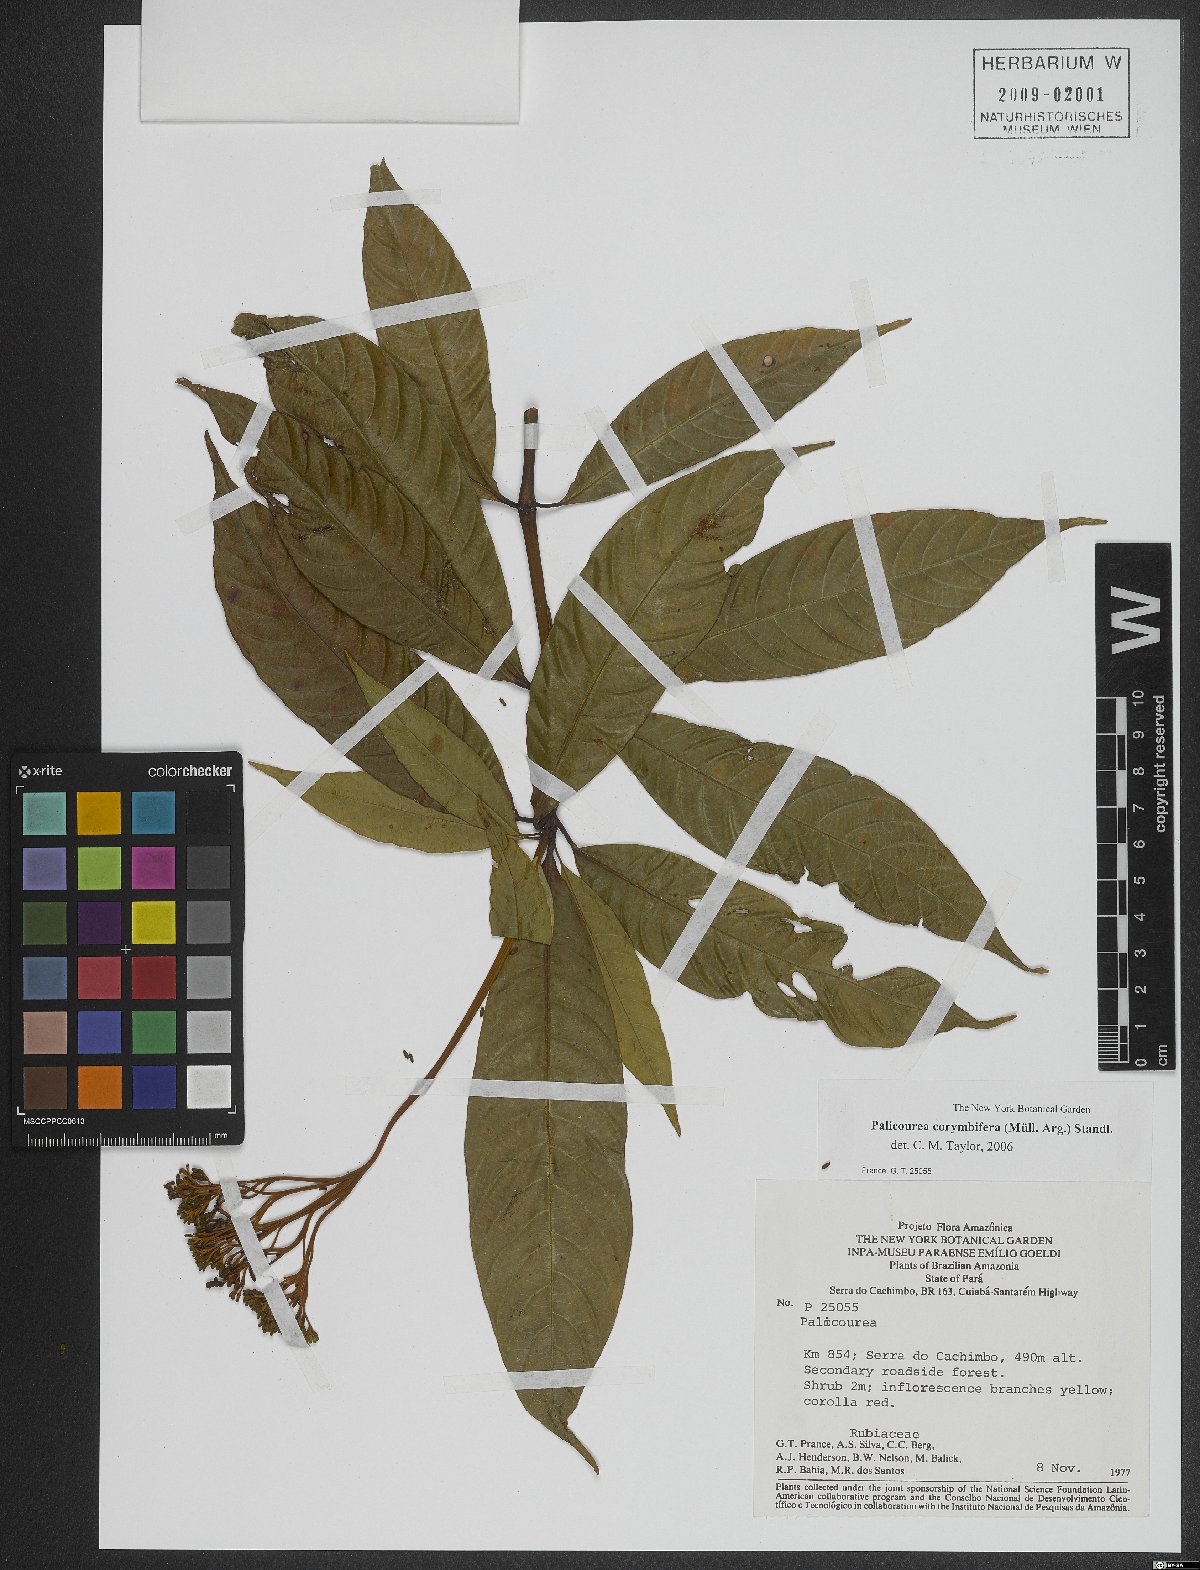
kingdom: Plantae
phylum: Tracheophyta
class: Magnoliopsida
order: Gentianales
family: Rubiaceae
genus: Palicourea
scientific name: Palicourea corymbifera
